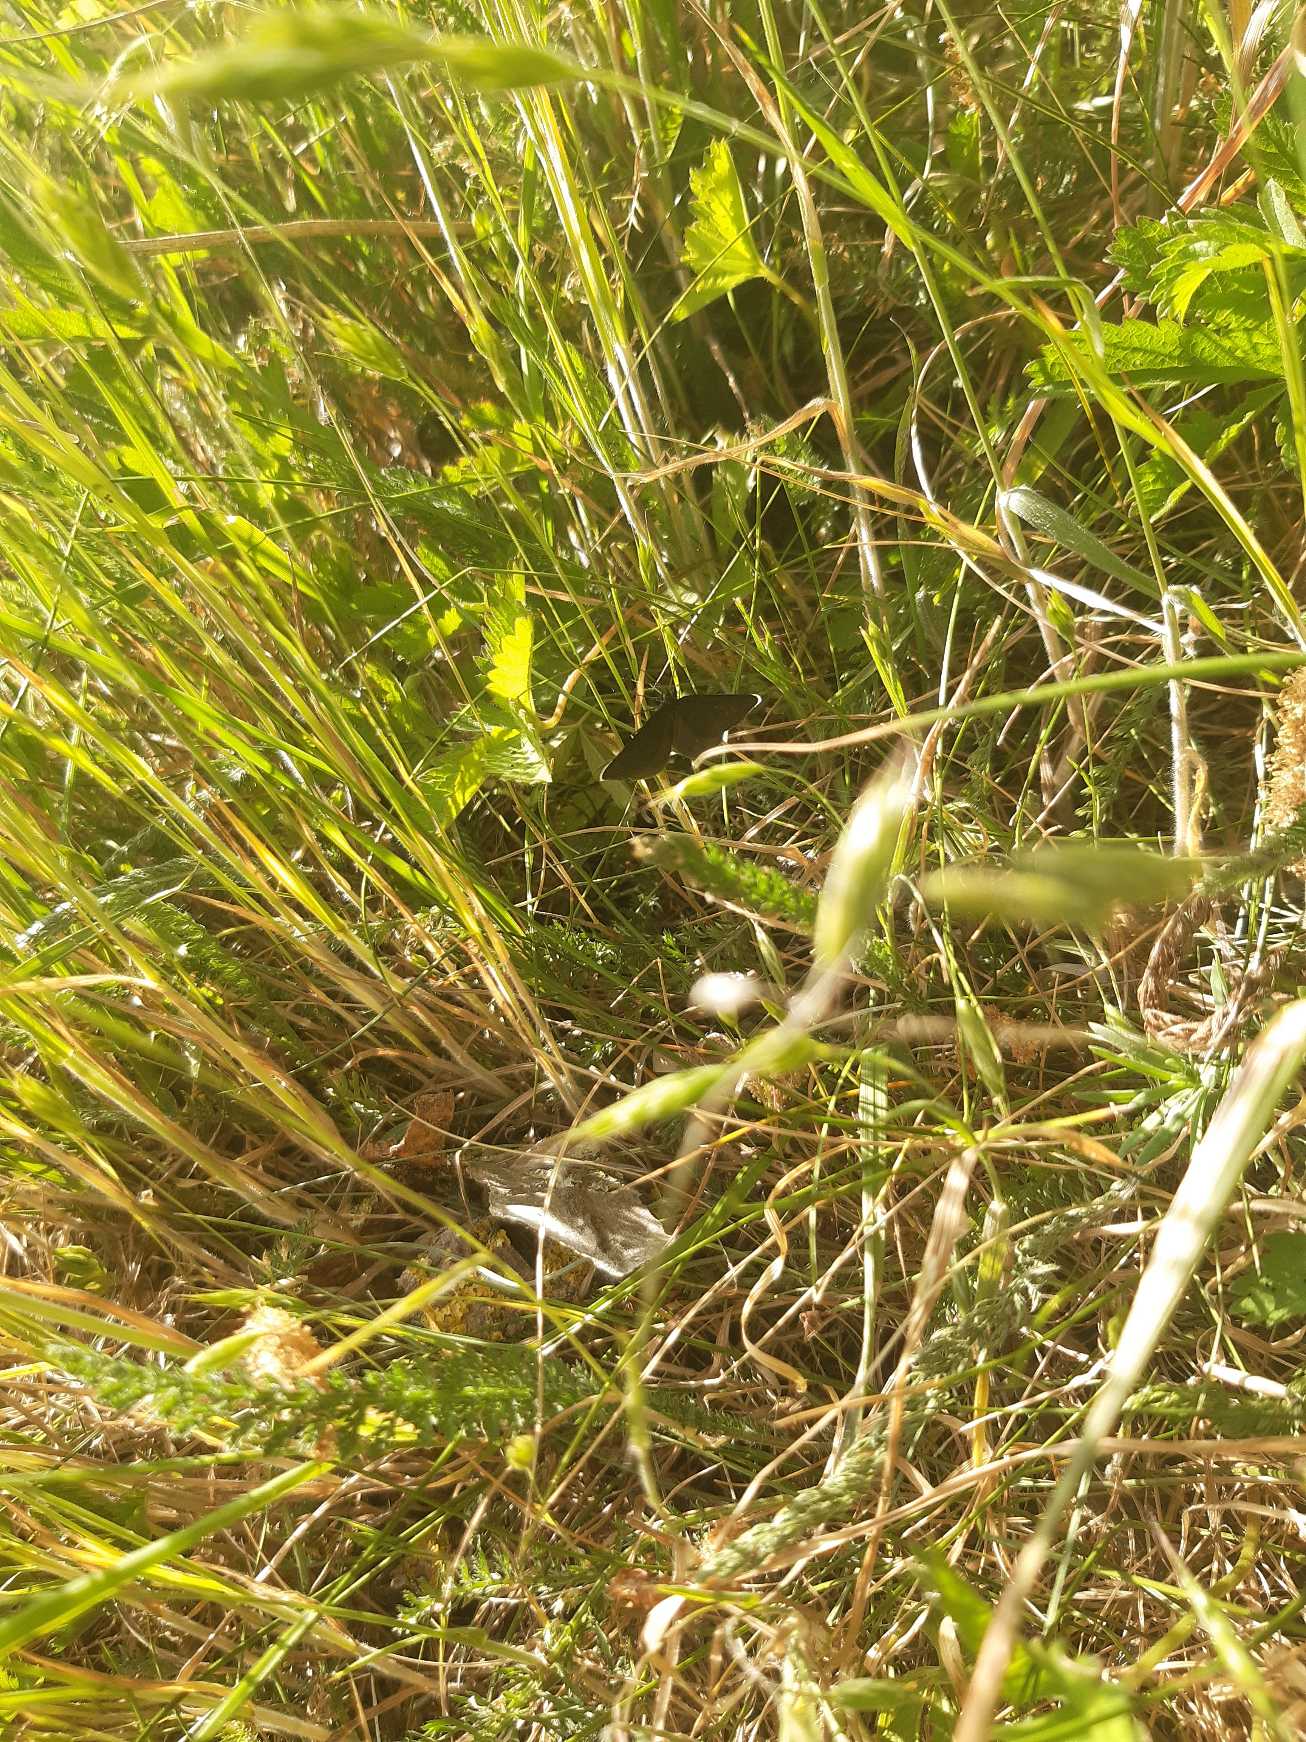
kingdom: Animalia
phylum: Arthropoda
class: Insecta
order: Lepidoptera
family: Geometridae
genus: Odezia
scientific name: Odezia atrata
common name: Sort måler
